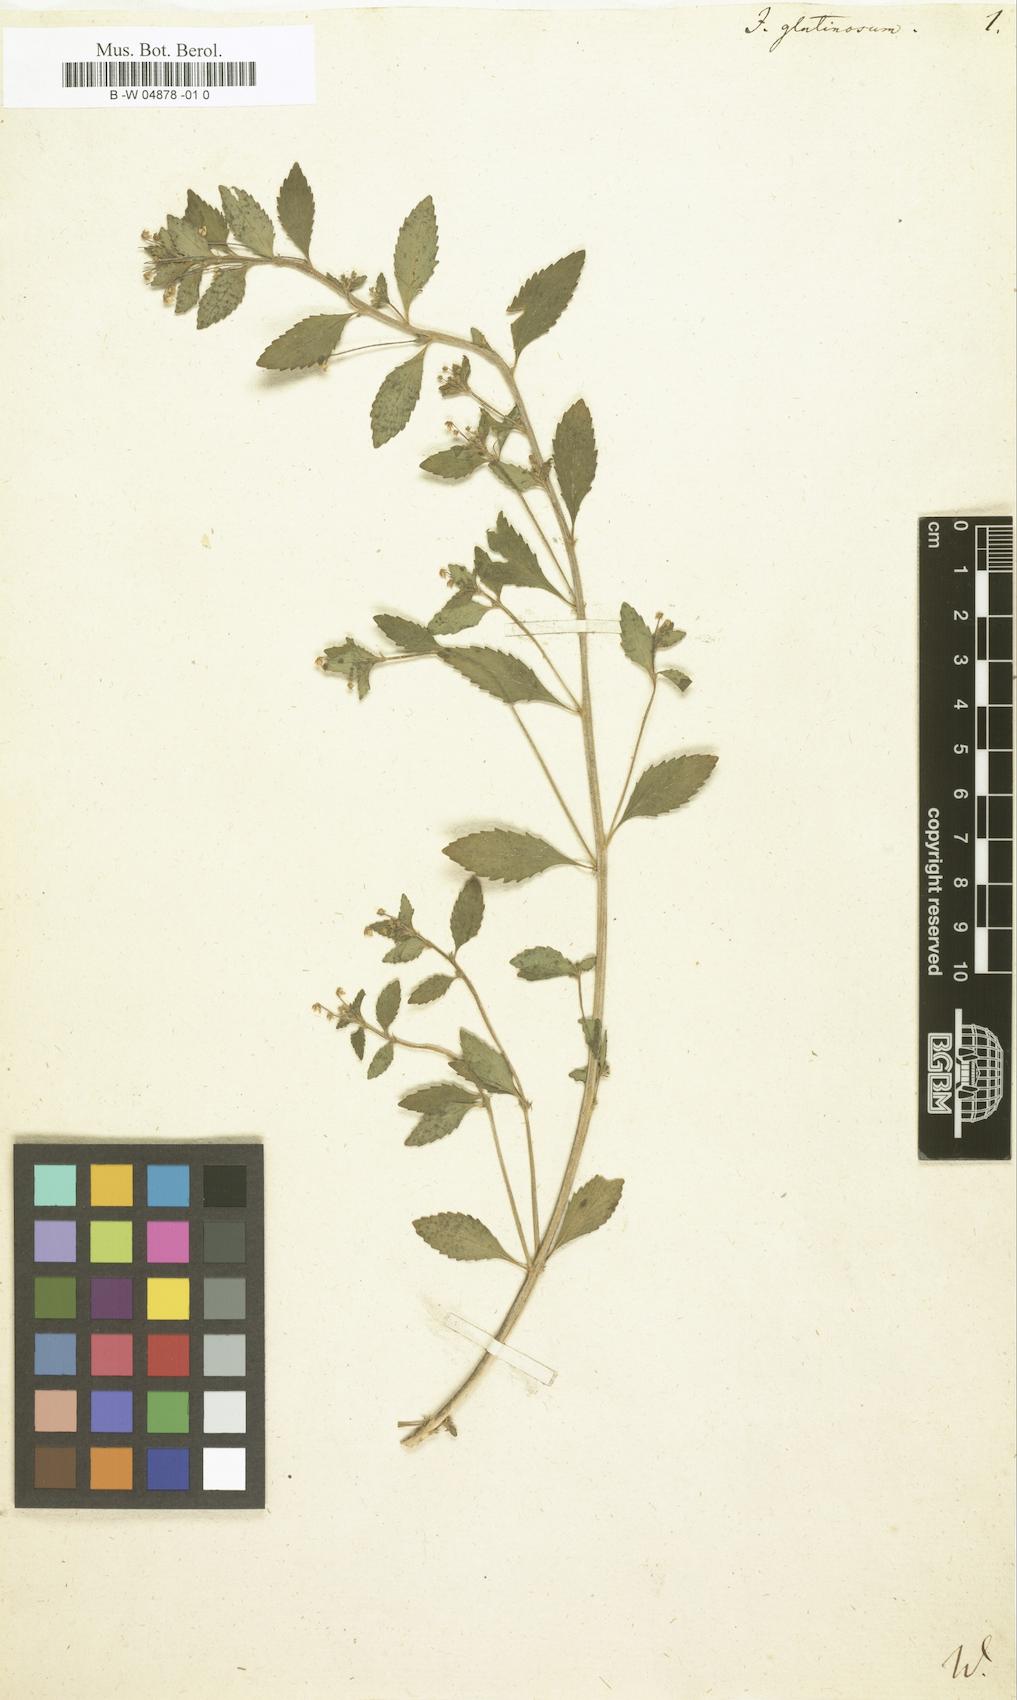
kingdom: Plantae
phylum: Tracheophyta
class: Magnoliopsida
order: Malpighiales
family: Violaceae
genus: Pombalia
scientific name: Pombalia parviflora
